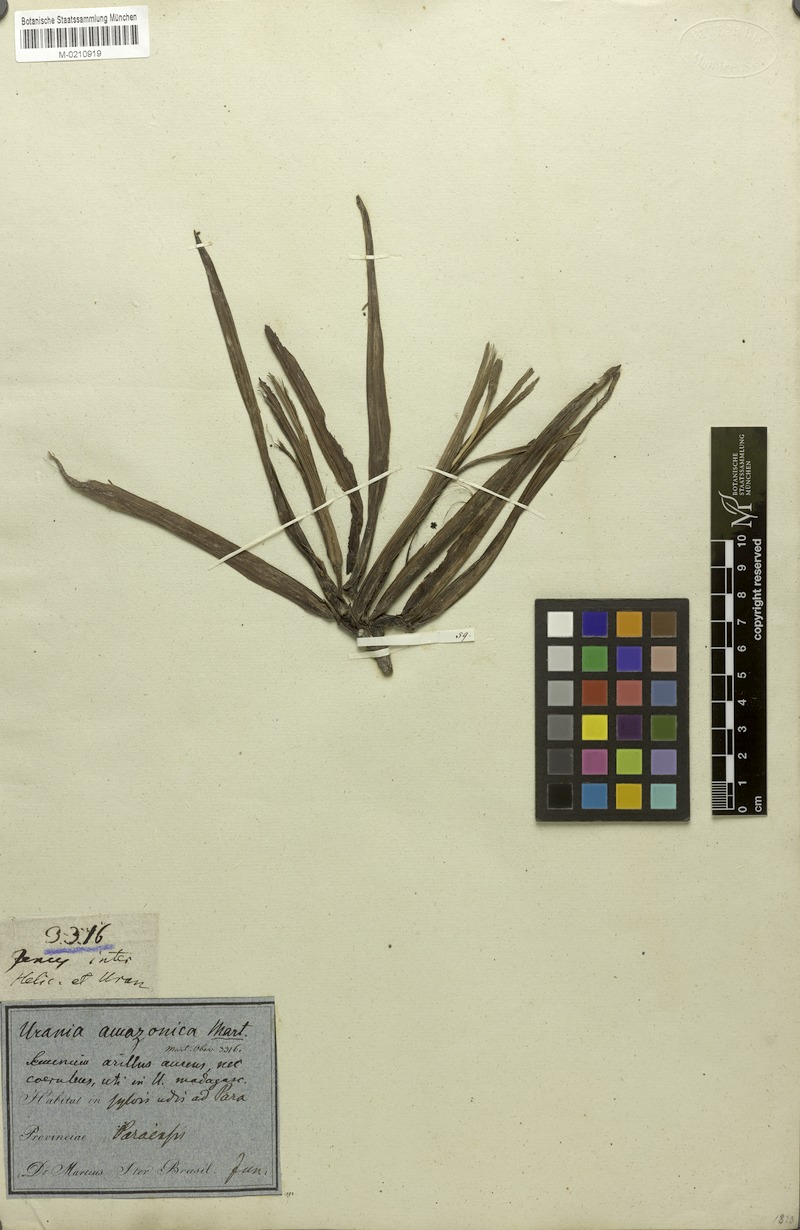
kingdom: Plantae
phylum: Tracheophyta
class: Liliopsida
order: Zingiberales
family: Strelitziaceae
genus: Phenakospermum
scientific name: Phenakospermum guyannense
